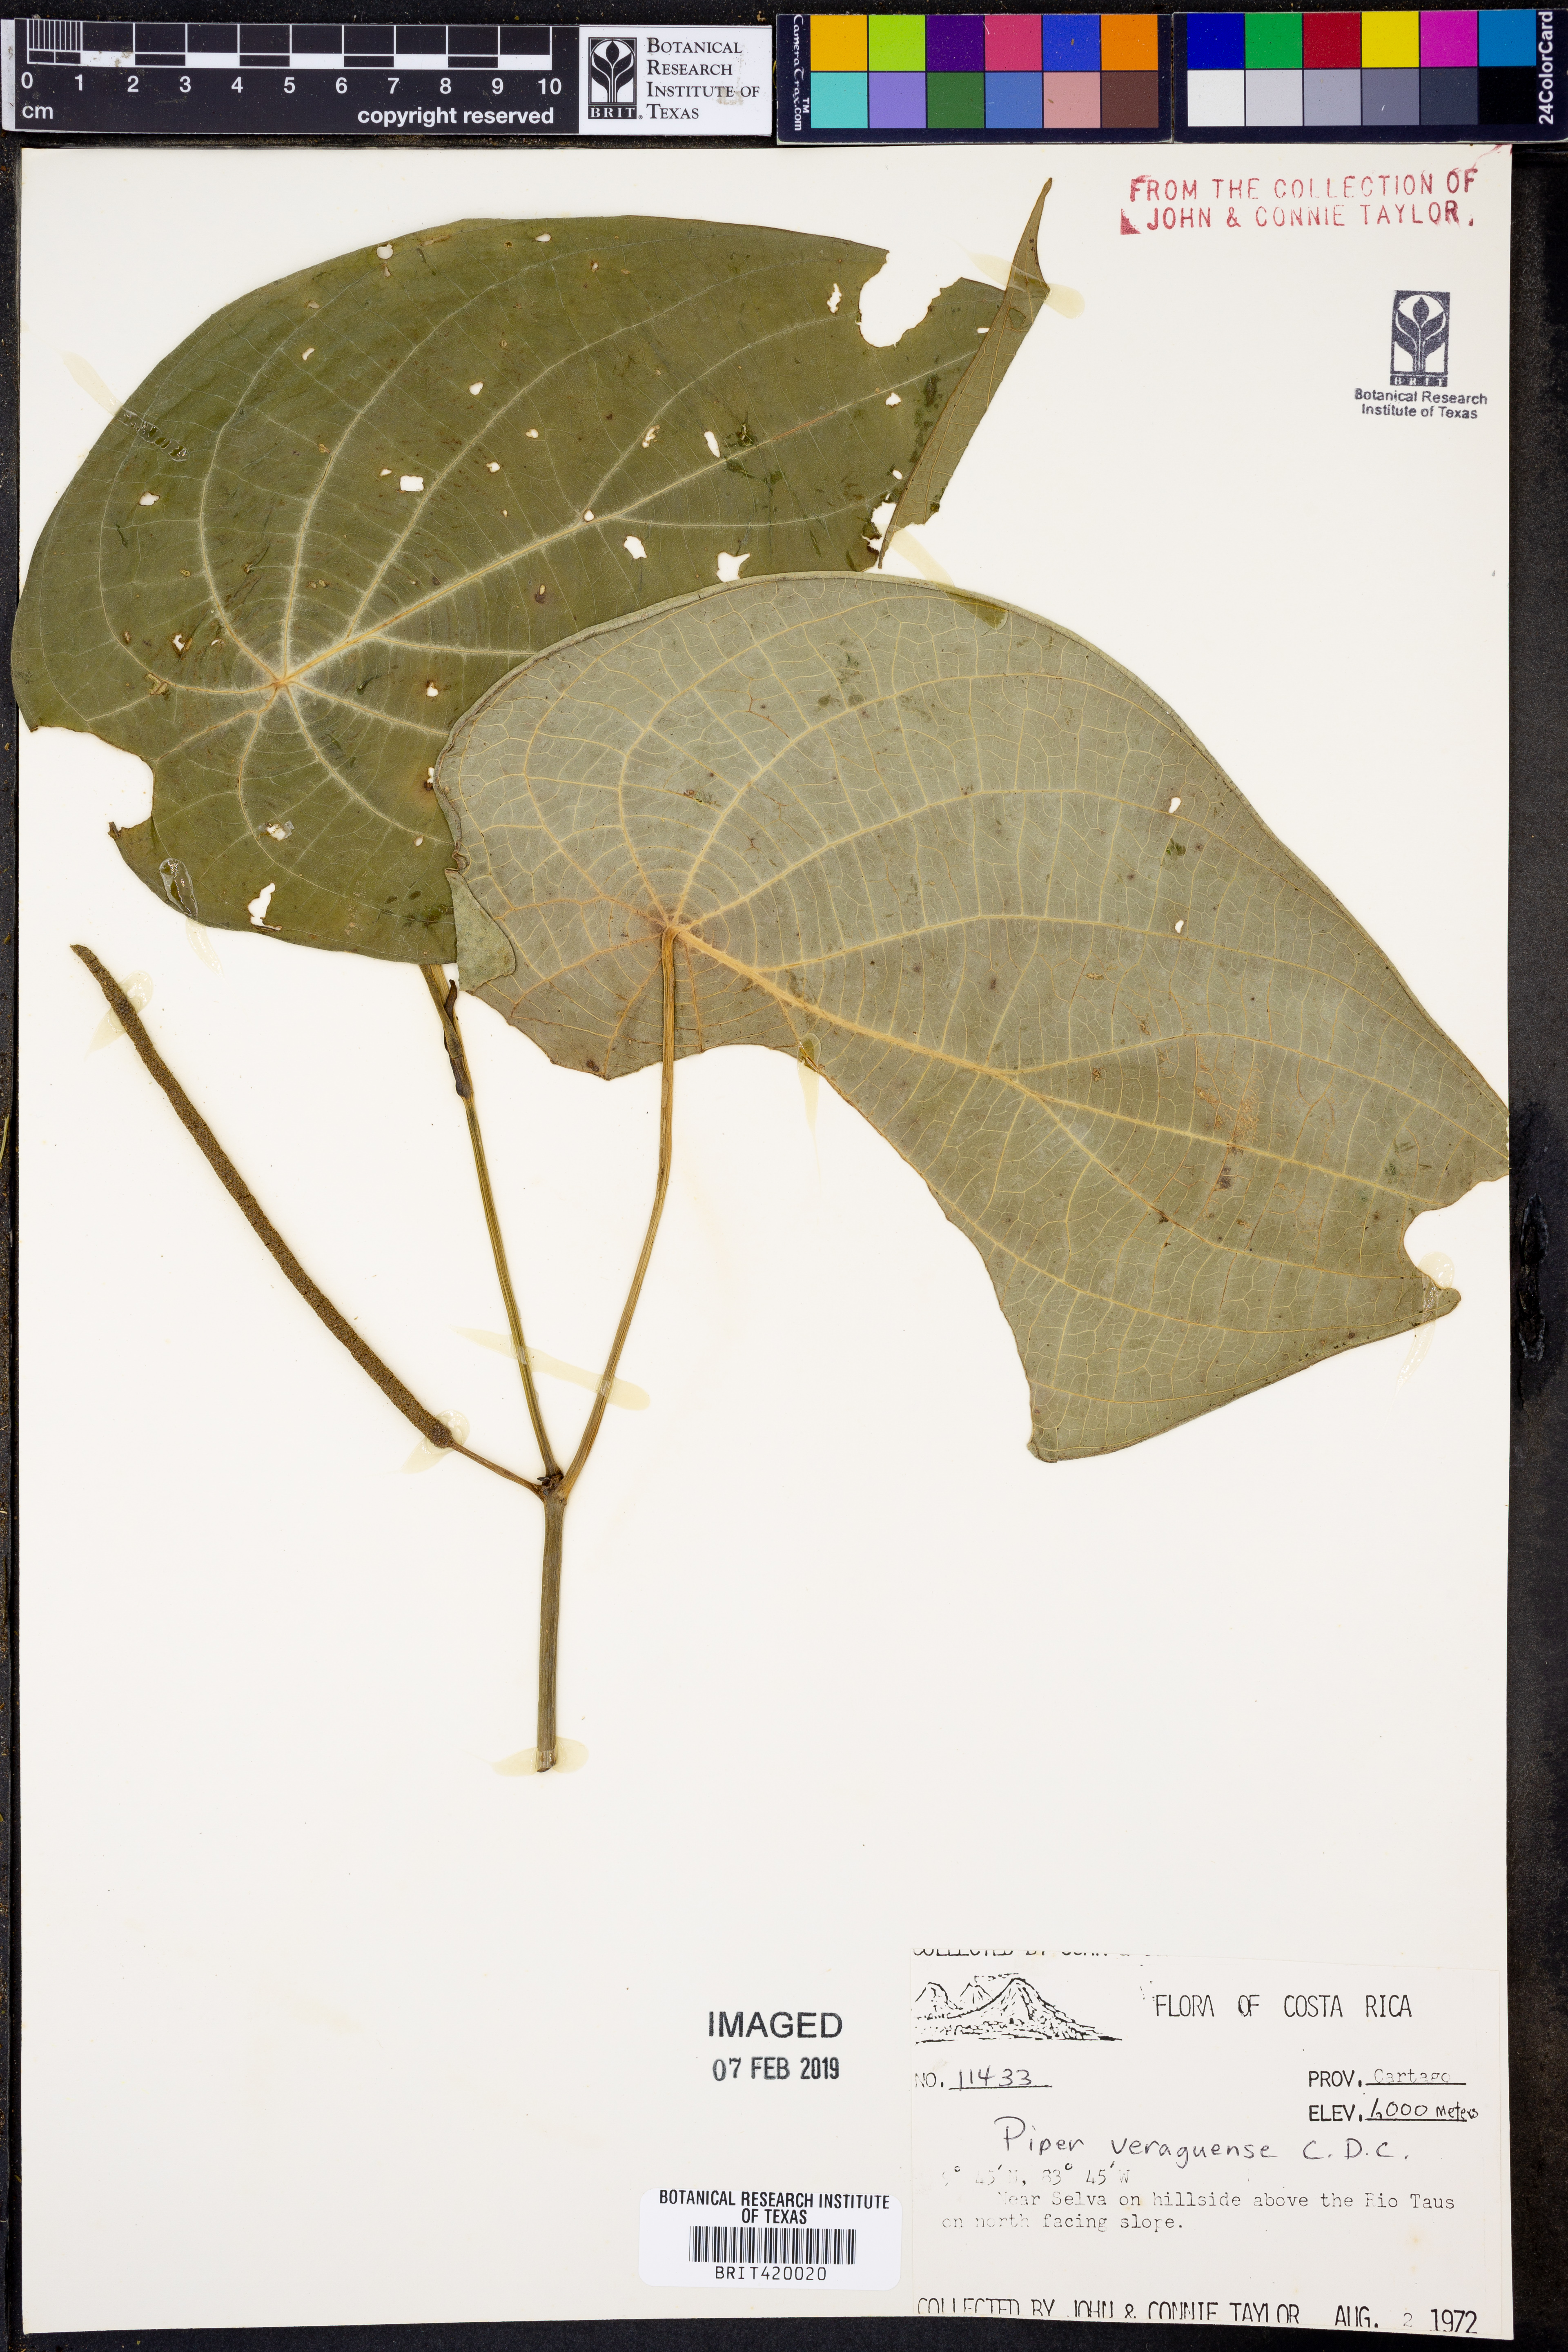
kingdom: Plantae
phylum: Tracheophyta
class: Magnoliopsida
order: Piperales
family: Piperaceae
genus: Piper
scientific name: Piper veraguense
